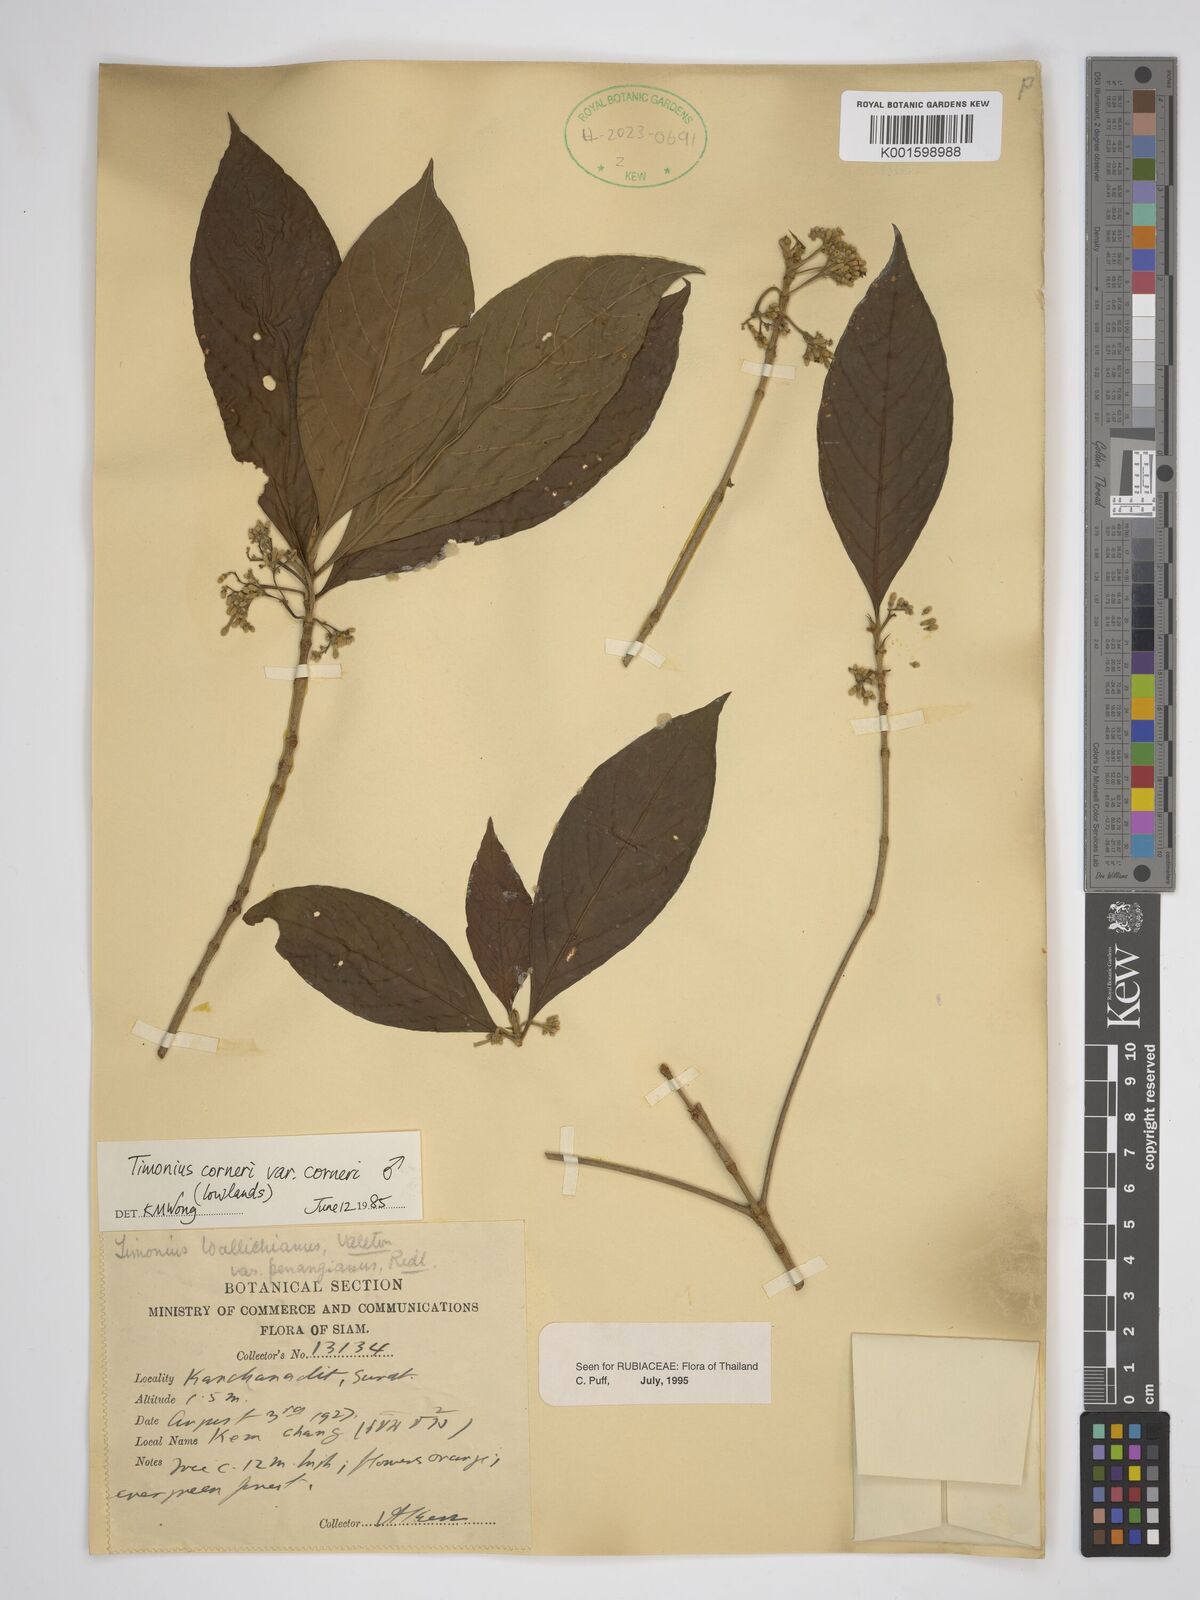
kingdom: Plantae
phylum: Tracheophyta
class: Magnoliopsida
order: Gentianales
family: Rubiaceae
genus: Timonius
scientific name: Timonius corneri
